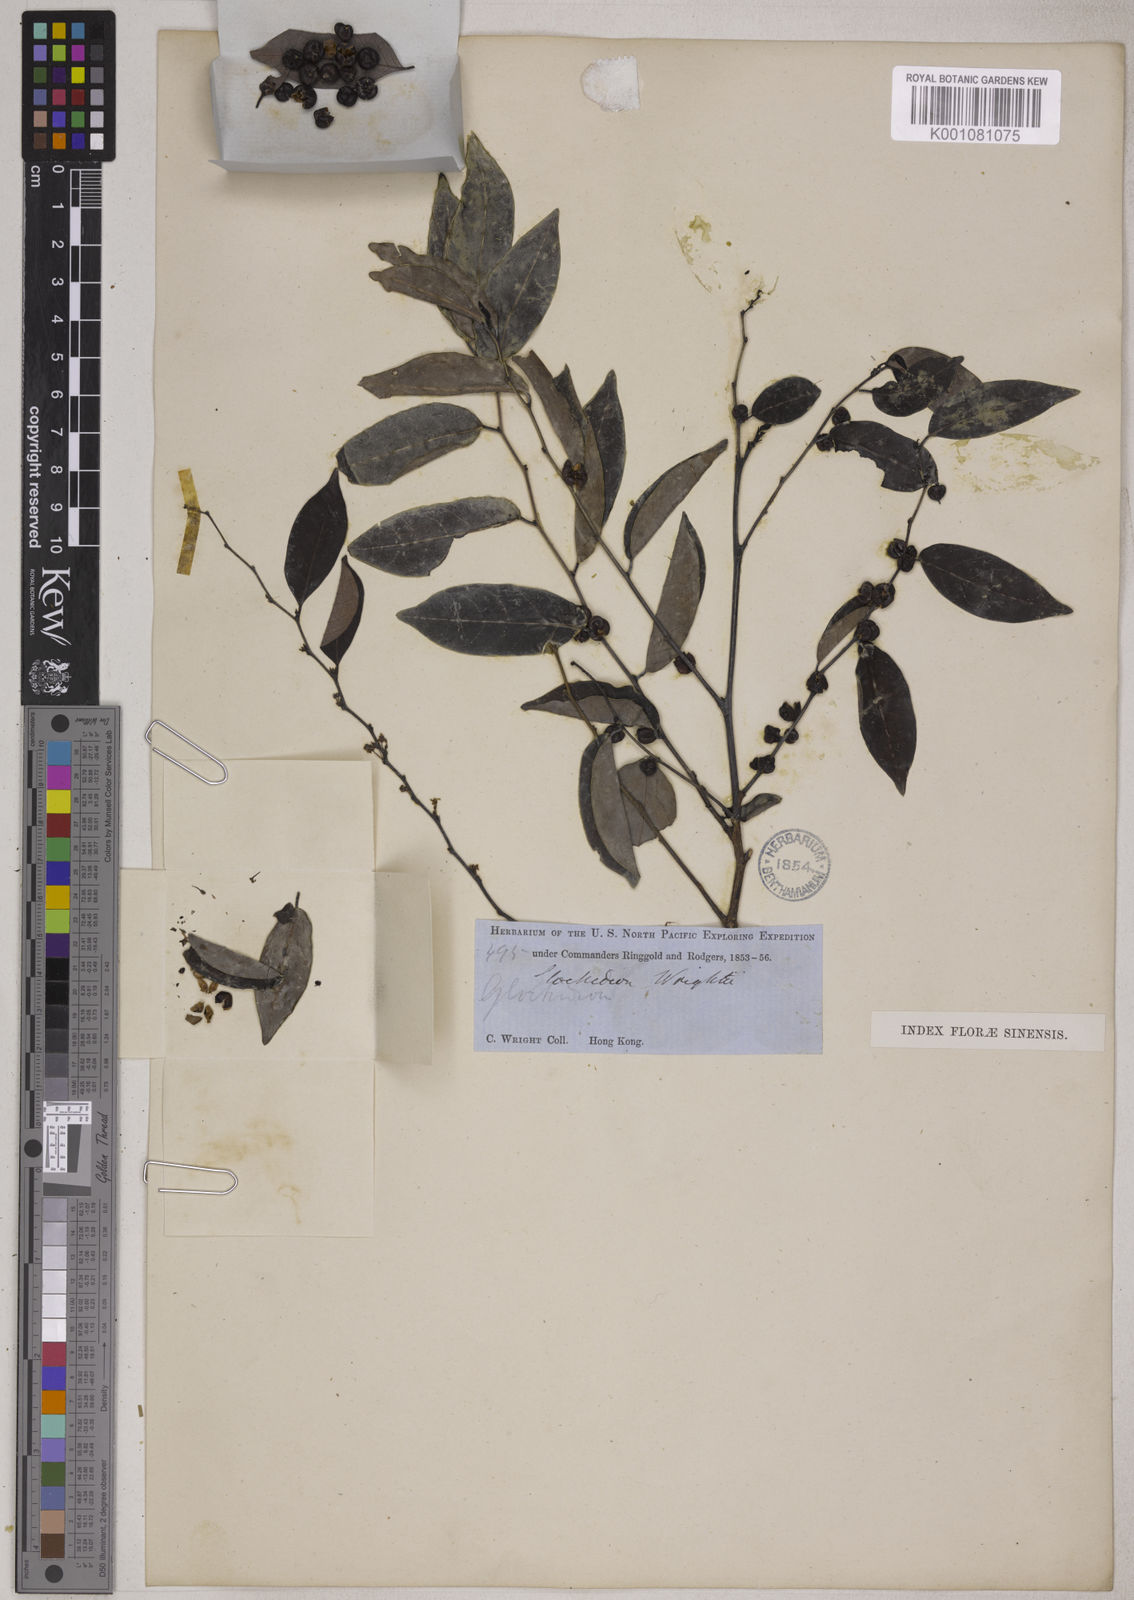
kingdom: Plantae
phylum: Tracheophyta
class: Magnoliopsida
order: Malpighiales
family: Phyllanthaceae
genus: Glochidion
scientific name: Glochidion wrightii
